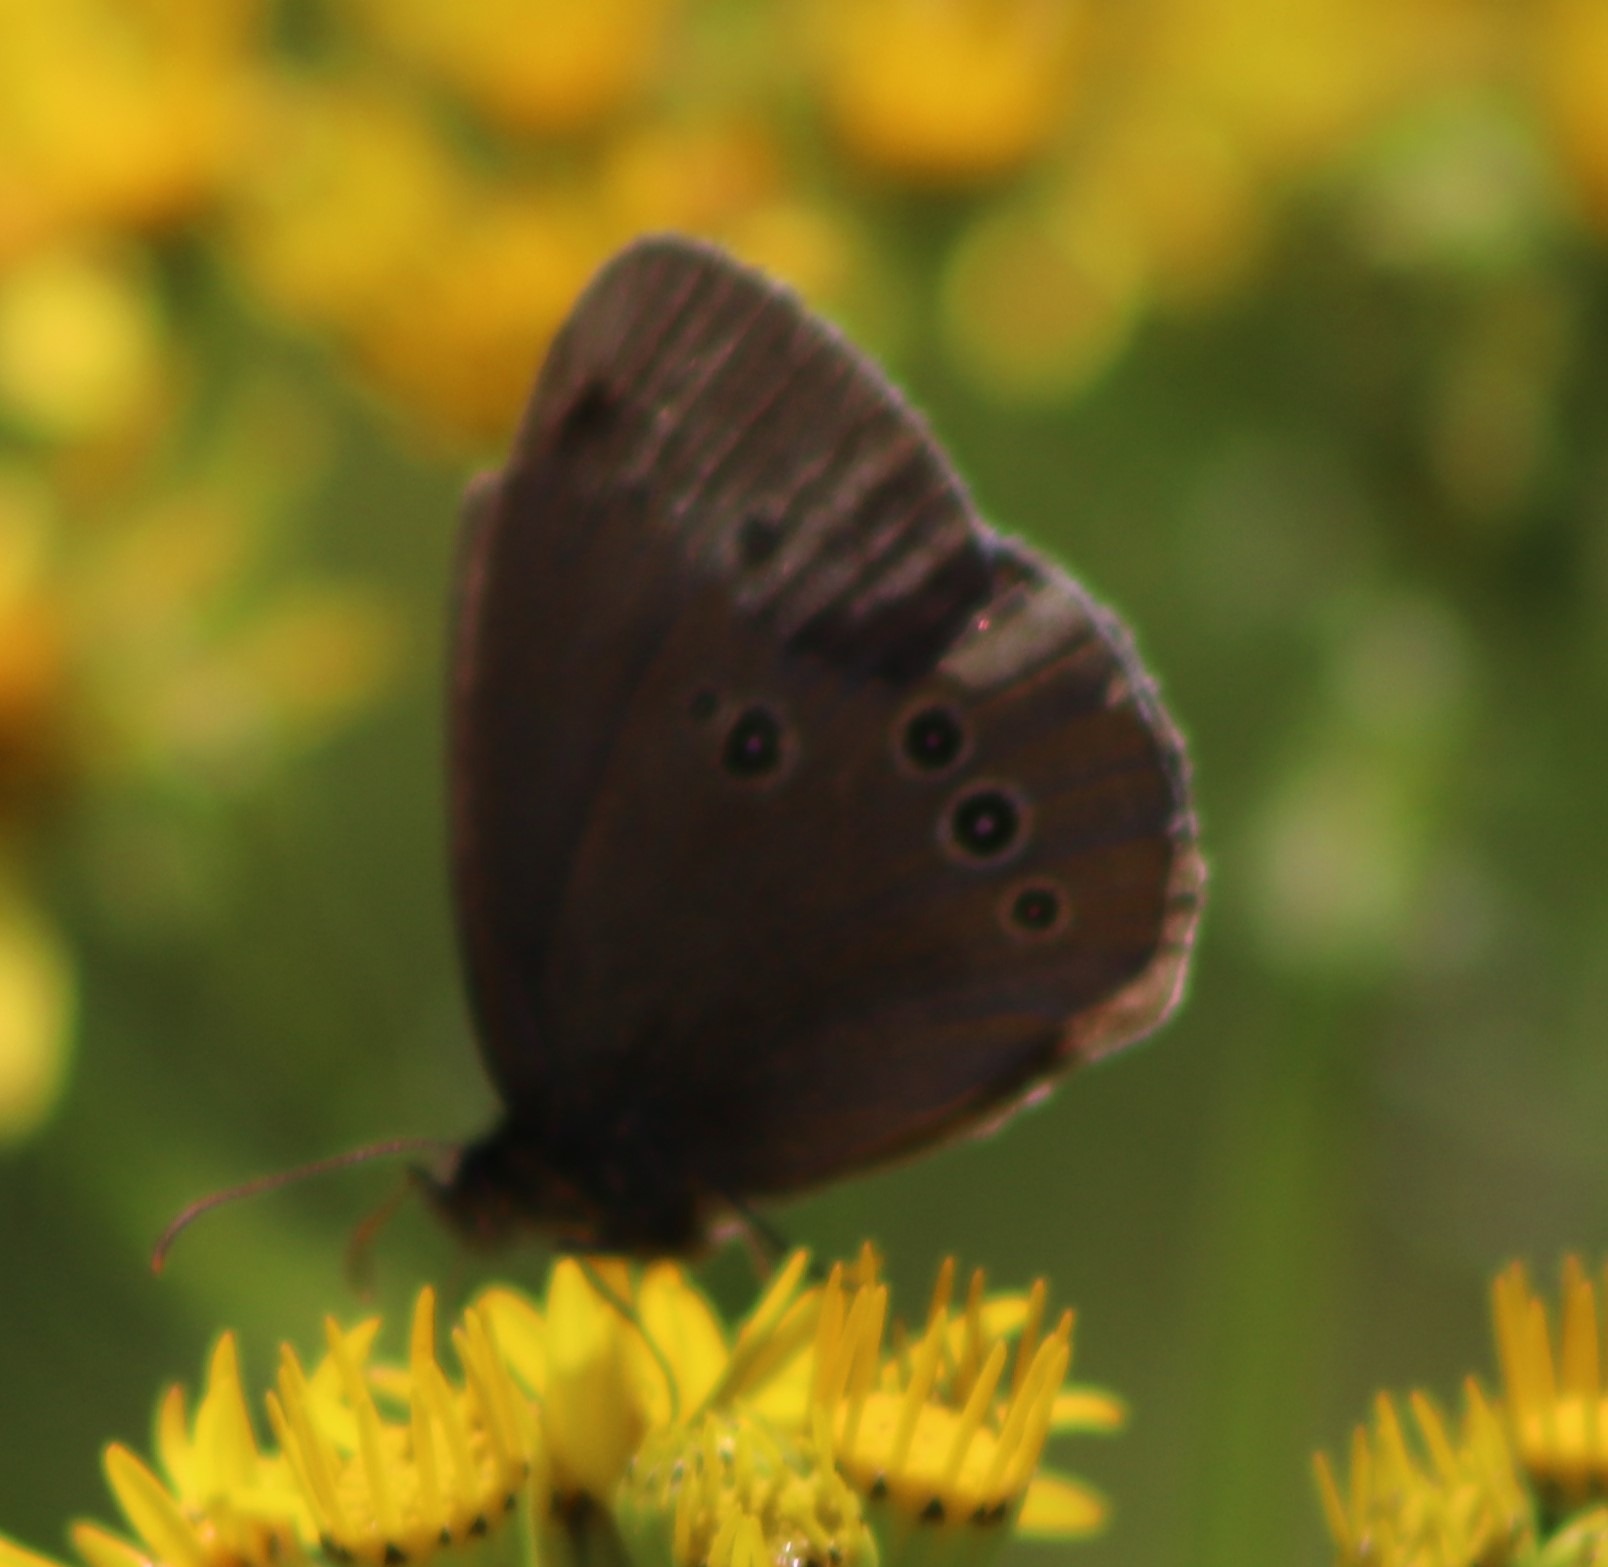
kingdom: Animalia
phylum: Arthropoda
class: Insecta
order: Lepidoptera
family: Nymphalidae
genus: Aphantopus
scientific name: Aphantopus hyperantus
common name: Engrandøje
